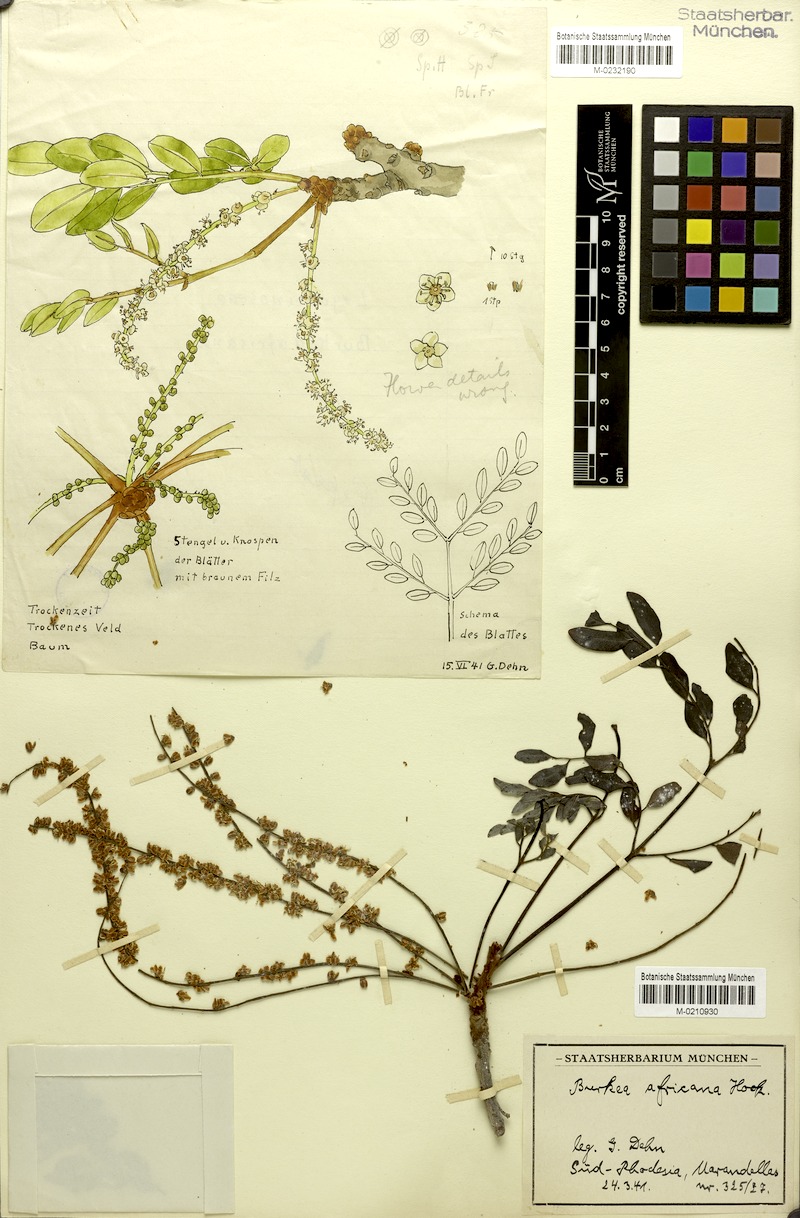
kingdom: Plantae
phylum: Tracheophyta
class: Magnoliopsida
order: Fabales
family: Fabaceae
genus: Burkea
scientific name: Burkea africana
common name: Mkalati tree
